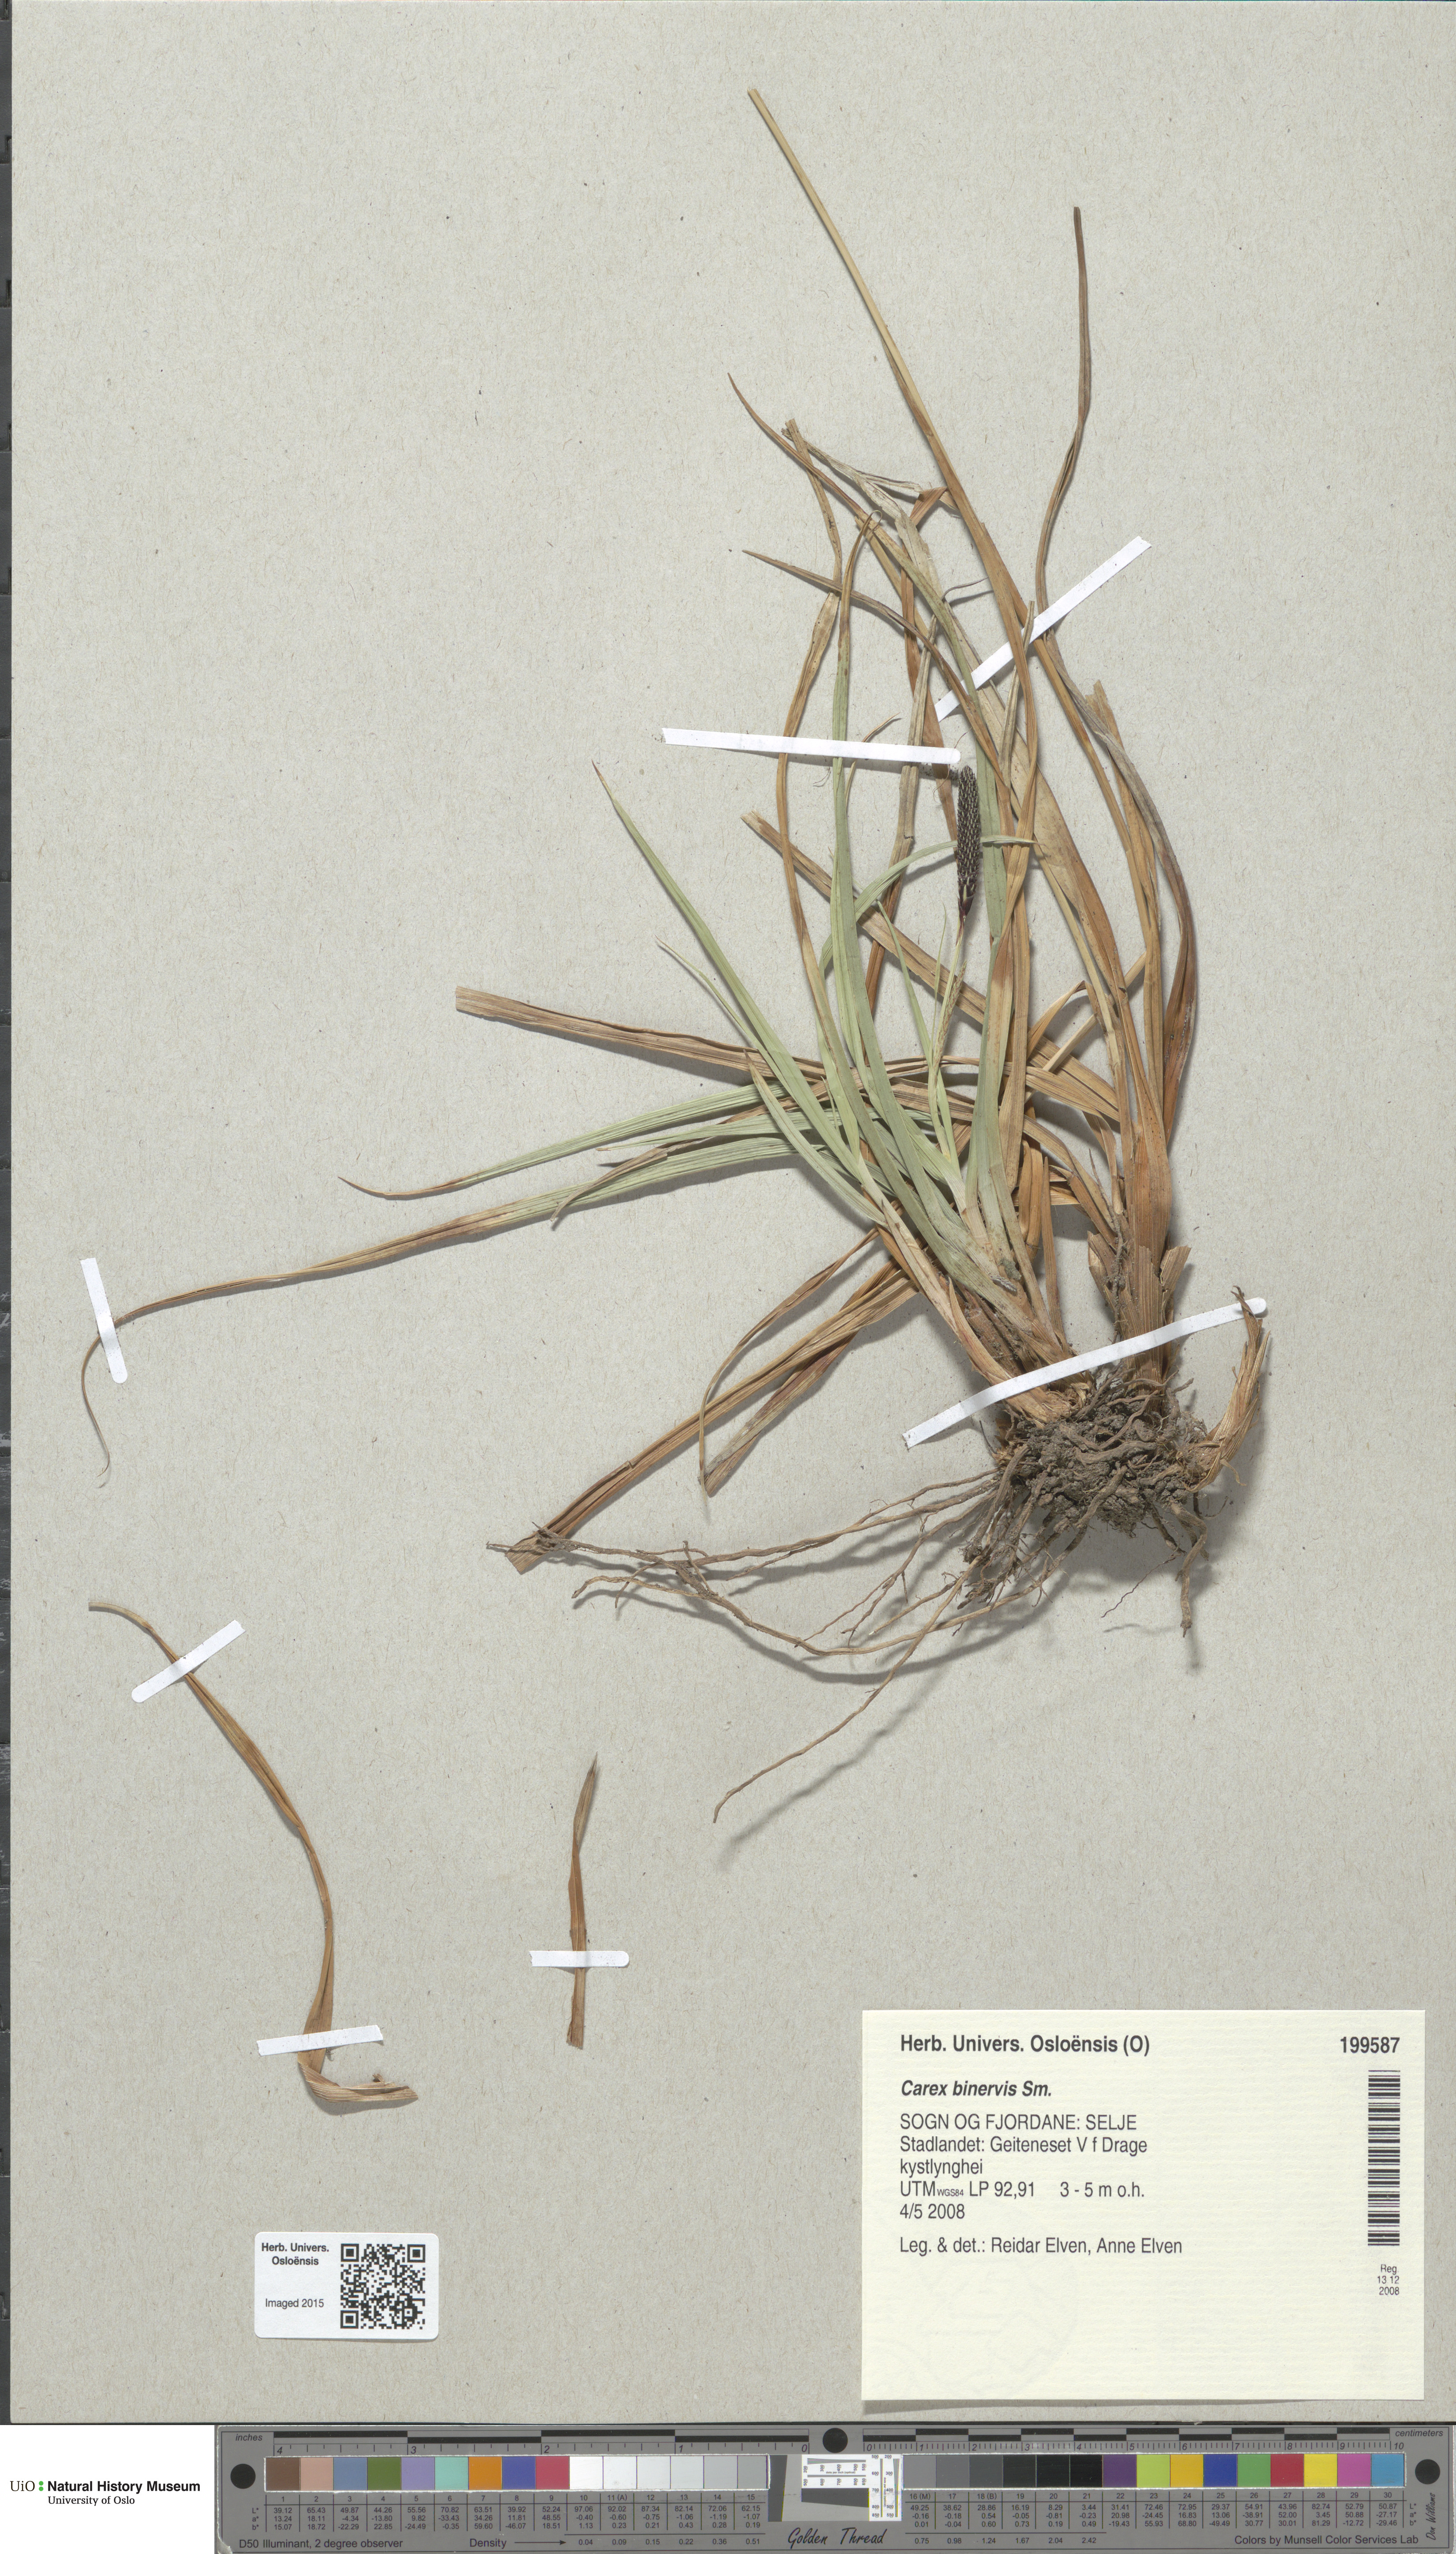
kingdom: Plantae
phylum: Tracheophyta
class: Liliopsida
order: Poales
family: Cyperaceae
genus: Carex
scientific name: Carex binervis
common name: Green-ribbed sedge
